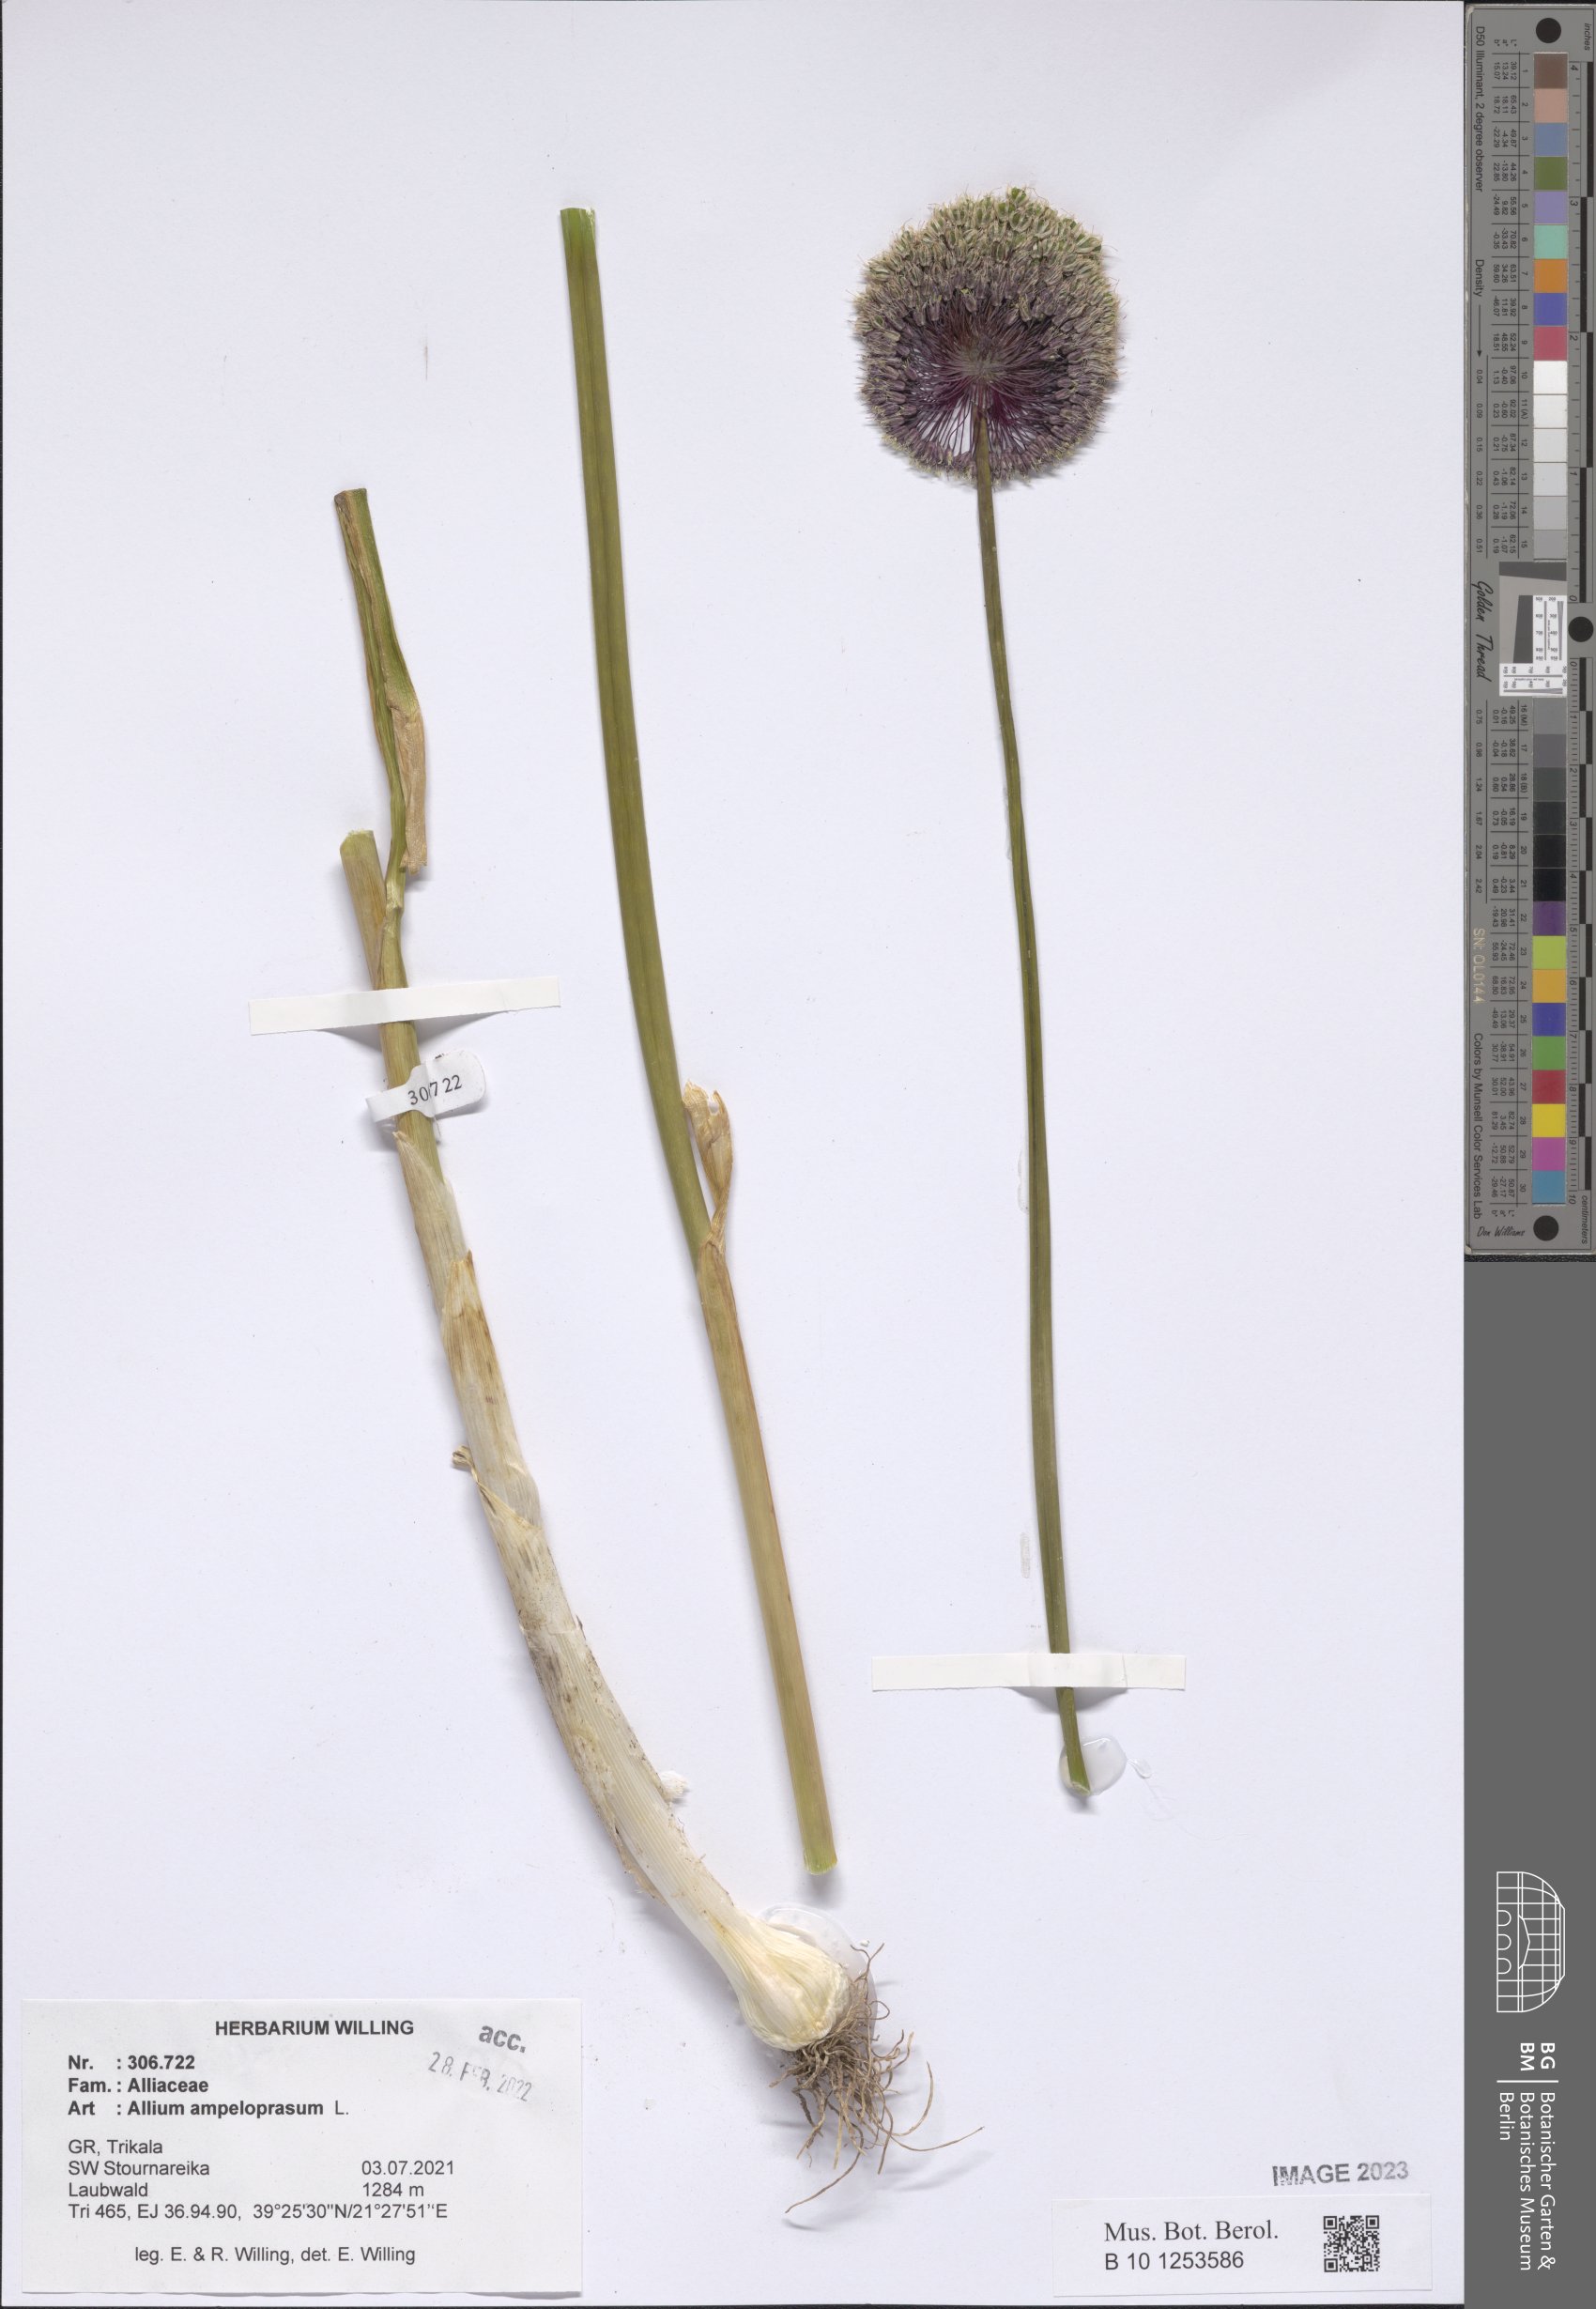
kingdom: Plantae
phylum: Tracheophyta
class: Liliopsida
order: Asparagales
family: Amaryllidaceae
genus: Allium
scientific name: Allium ampeloprasum
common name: Wild leek
